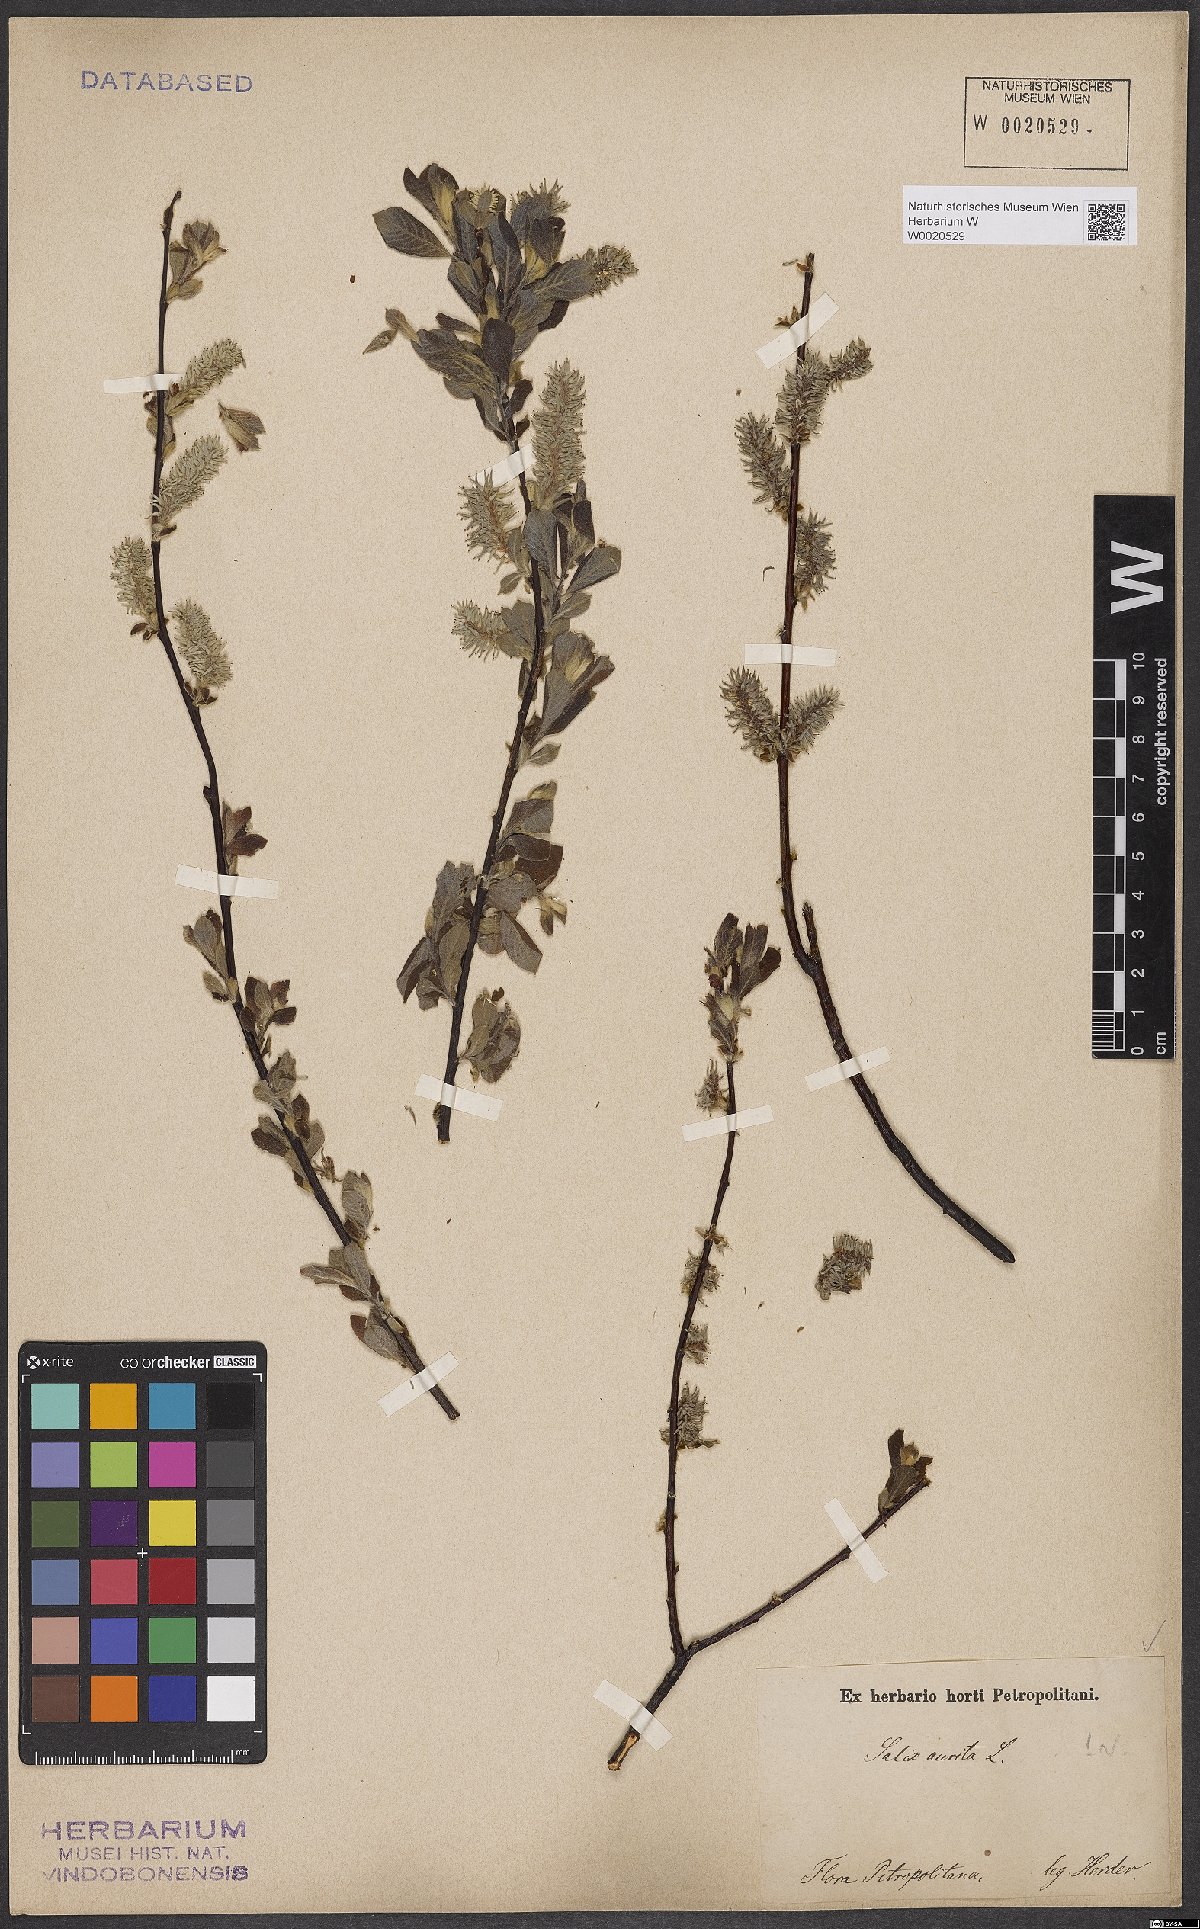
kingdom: Plantae
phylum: Tracheophyta
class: Magnoliopsida
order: Malpighiales
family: Salicaceae
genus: Salix
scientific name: Salix aurita
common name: Eared willow
